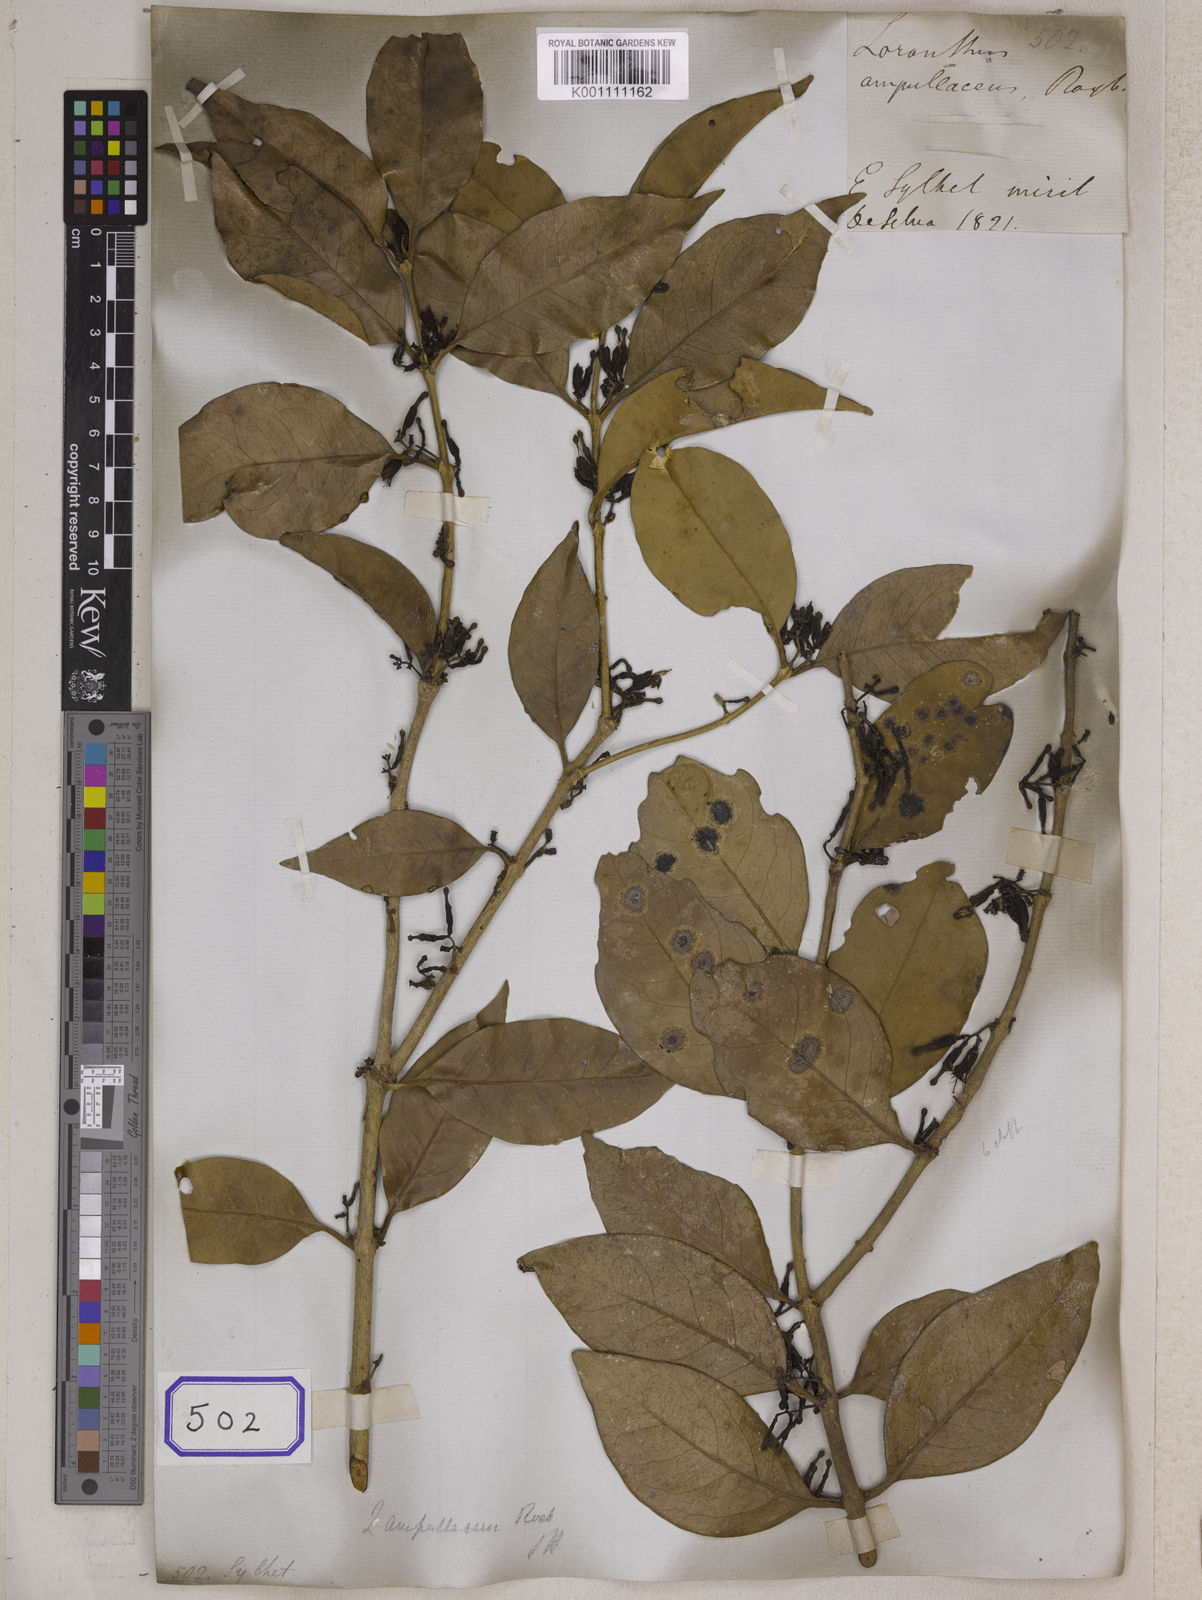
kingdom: Plantae
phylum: Tracheophyta
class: Magnoliopsida
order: Santalales
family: Loranthaceae
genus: Macrosolen
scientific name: Macrosolen cochinchinensis
